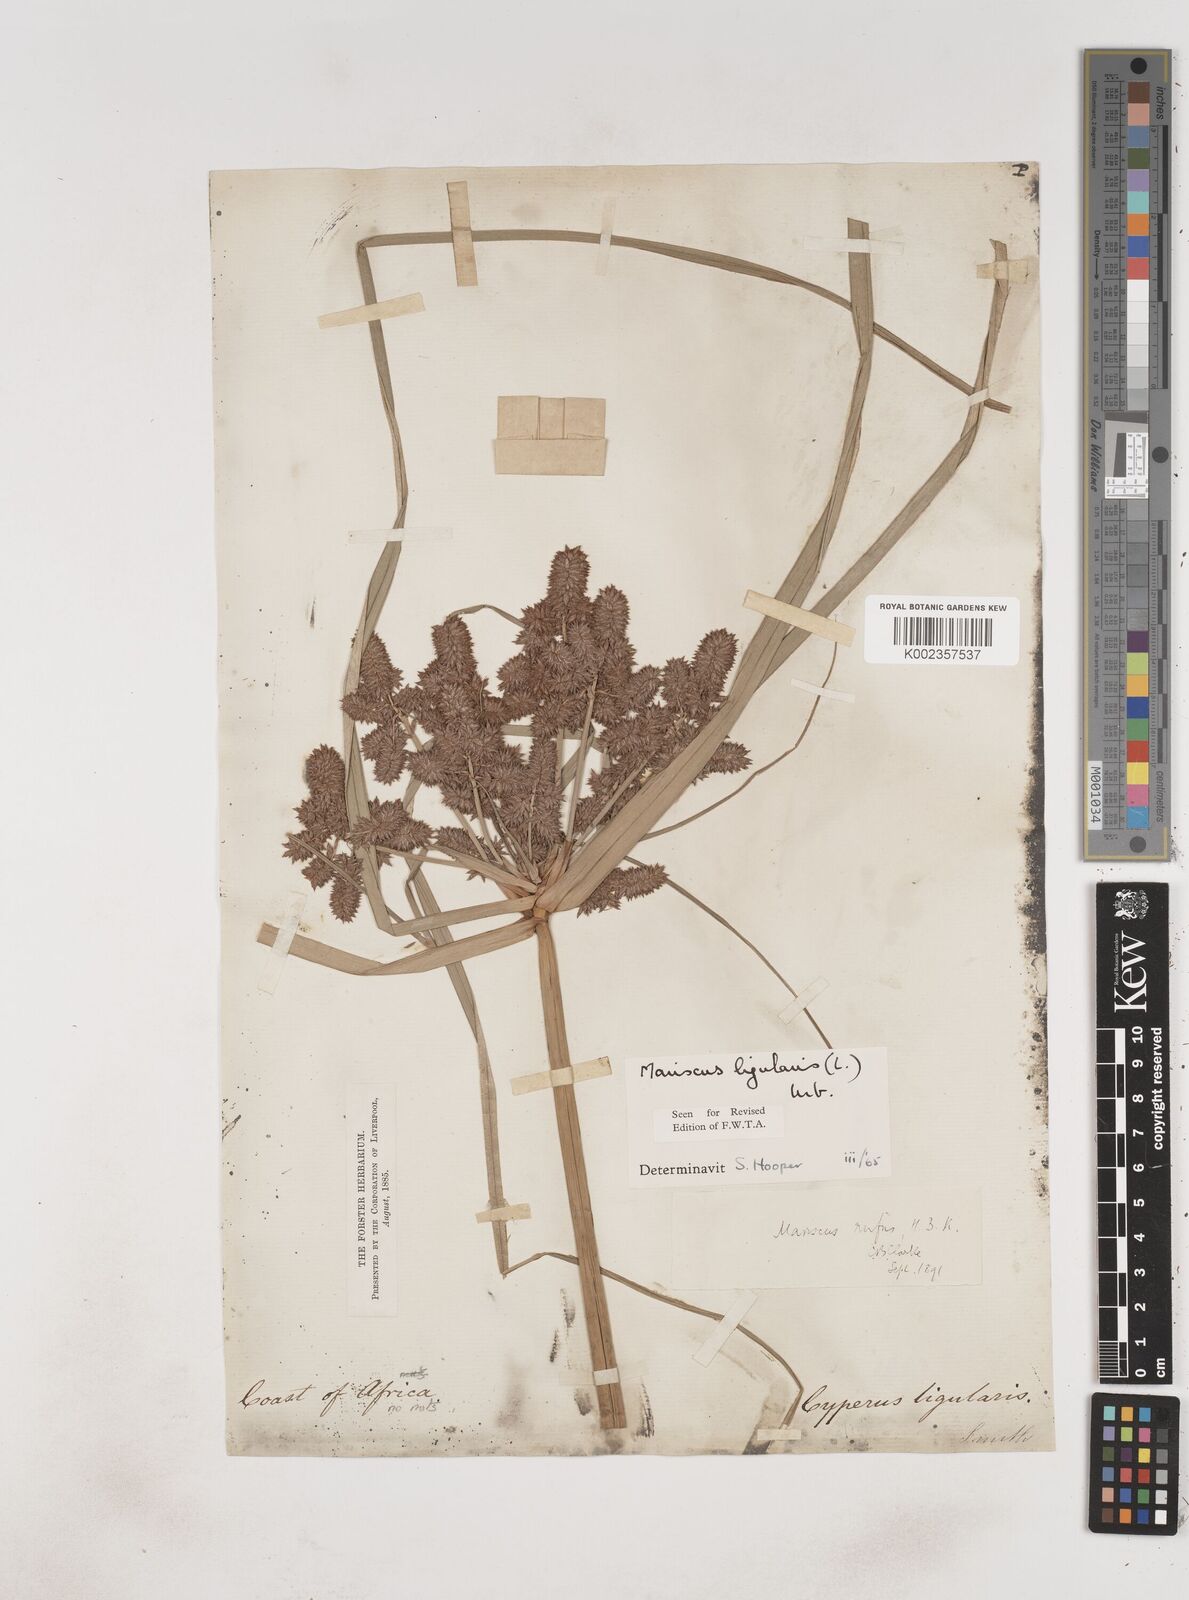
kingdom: Plantae
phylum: Tracheophyta
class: Liliopsida
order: Poales
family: Cyperaceae
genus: Cyperus
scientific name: Cyperus ligularis
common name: Swamp flat sedge
